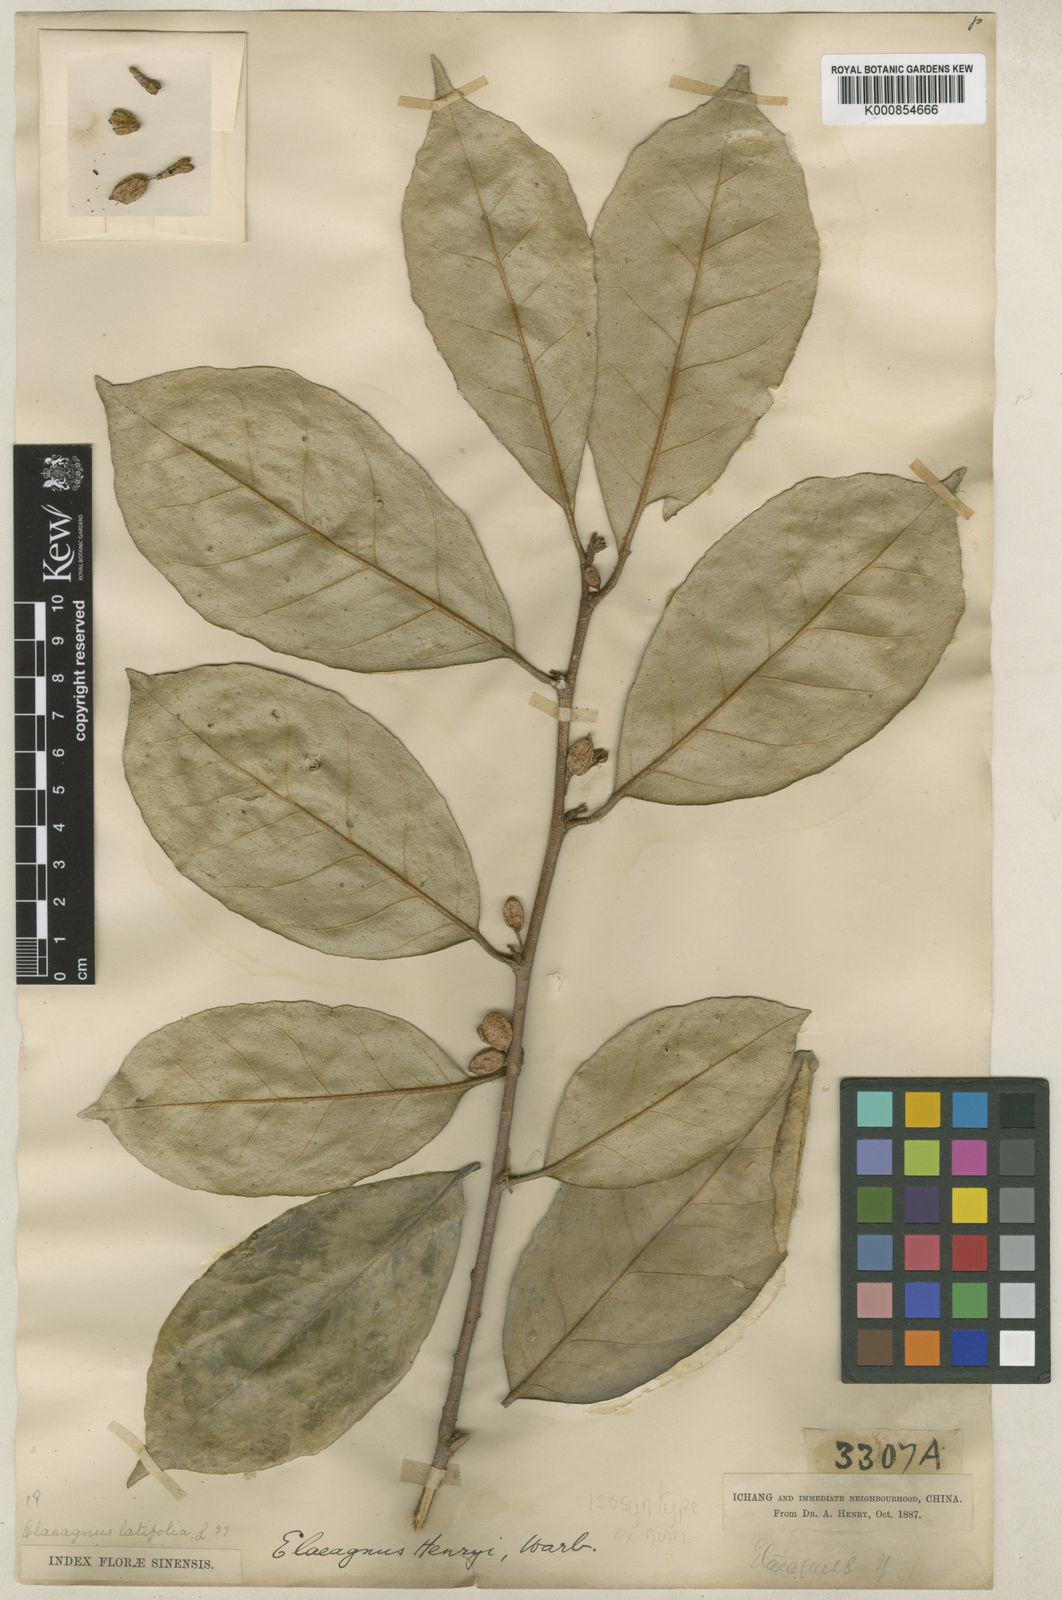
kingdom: Plantae
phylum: Tracheophyta
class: Magnoliopsida
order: Rosales
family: Elaeagnaceae
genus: Elaeagnus
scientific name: Elaeagnus
